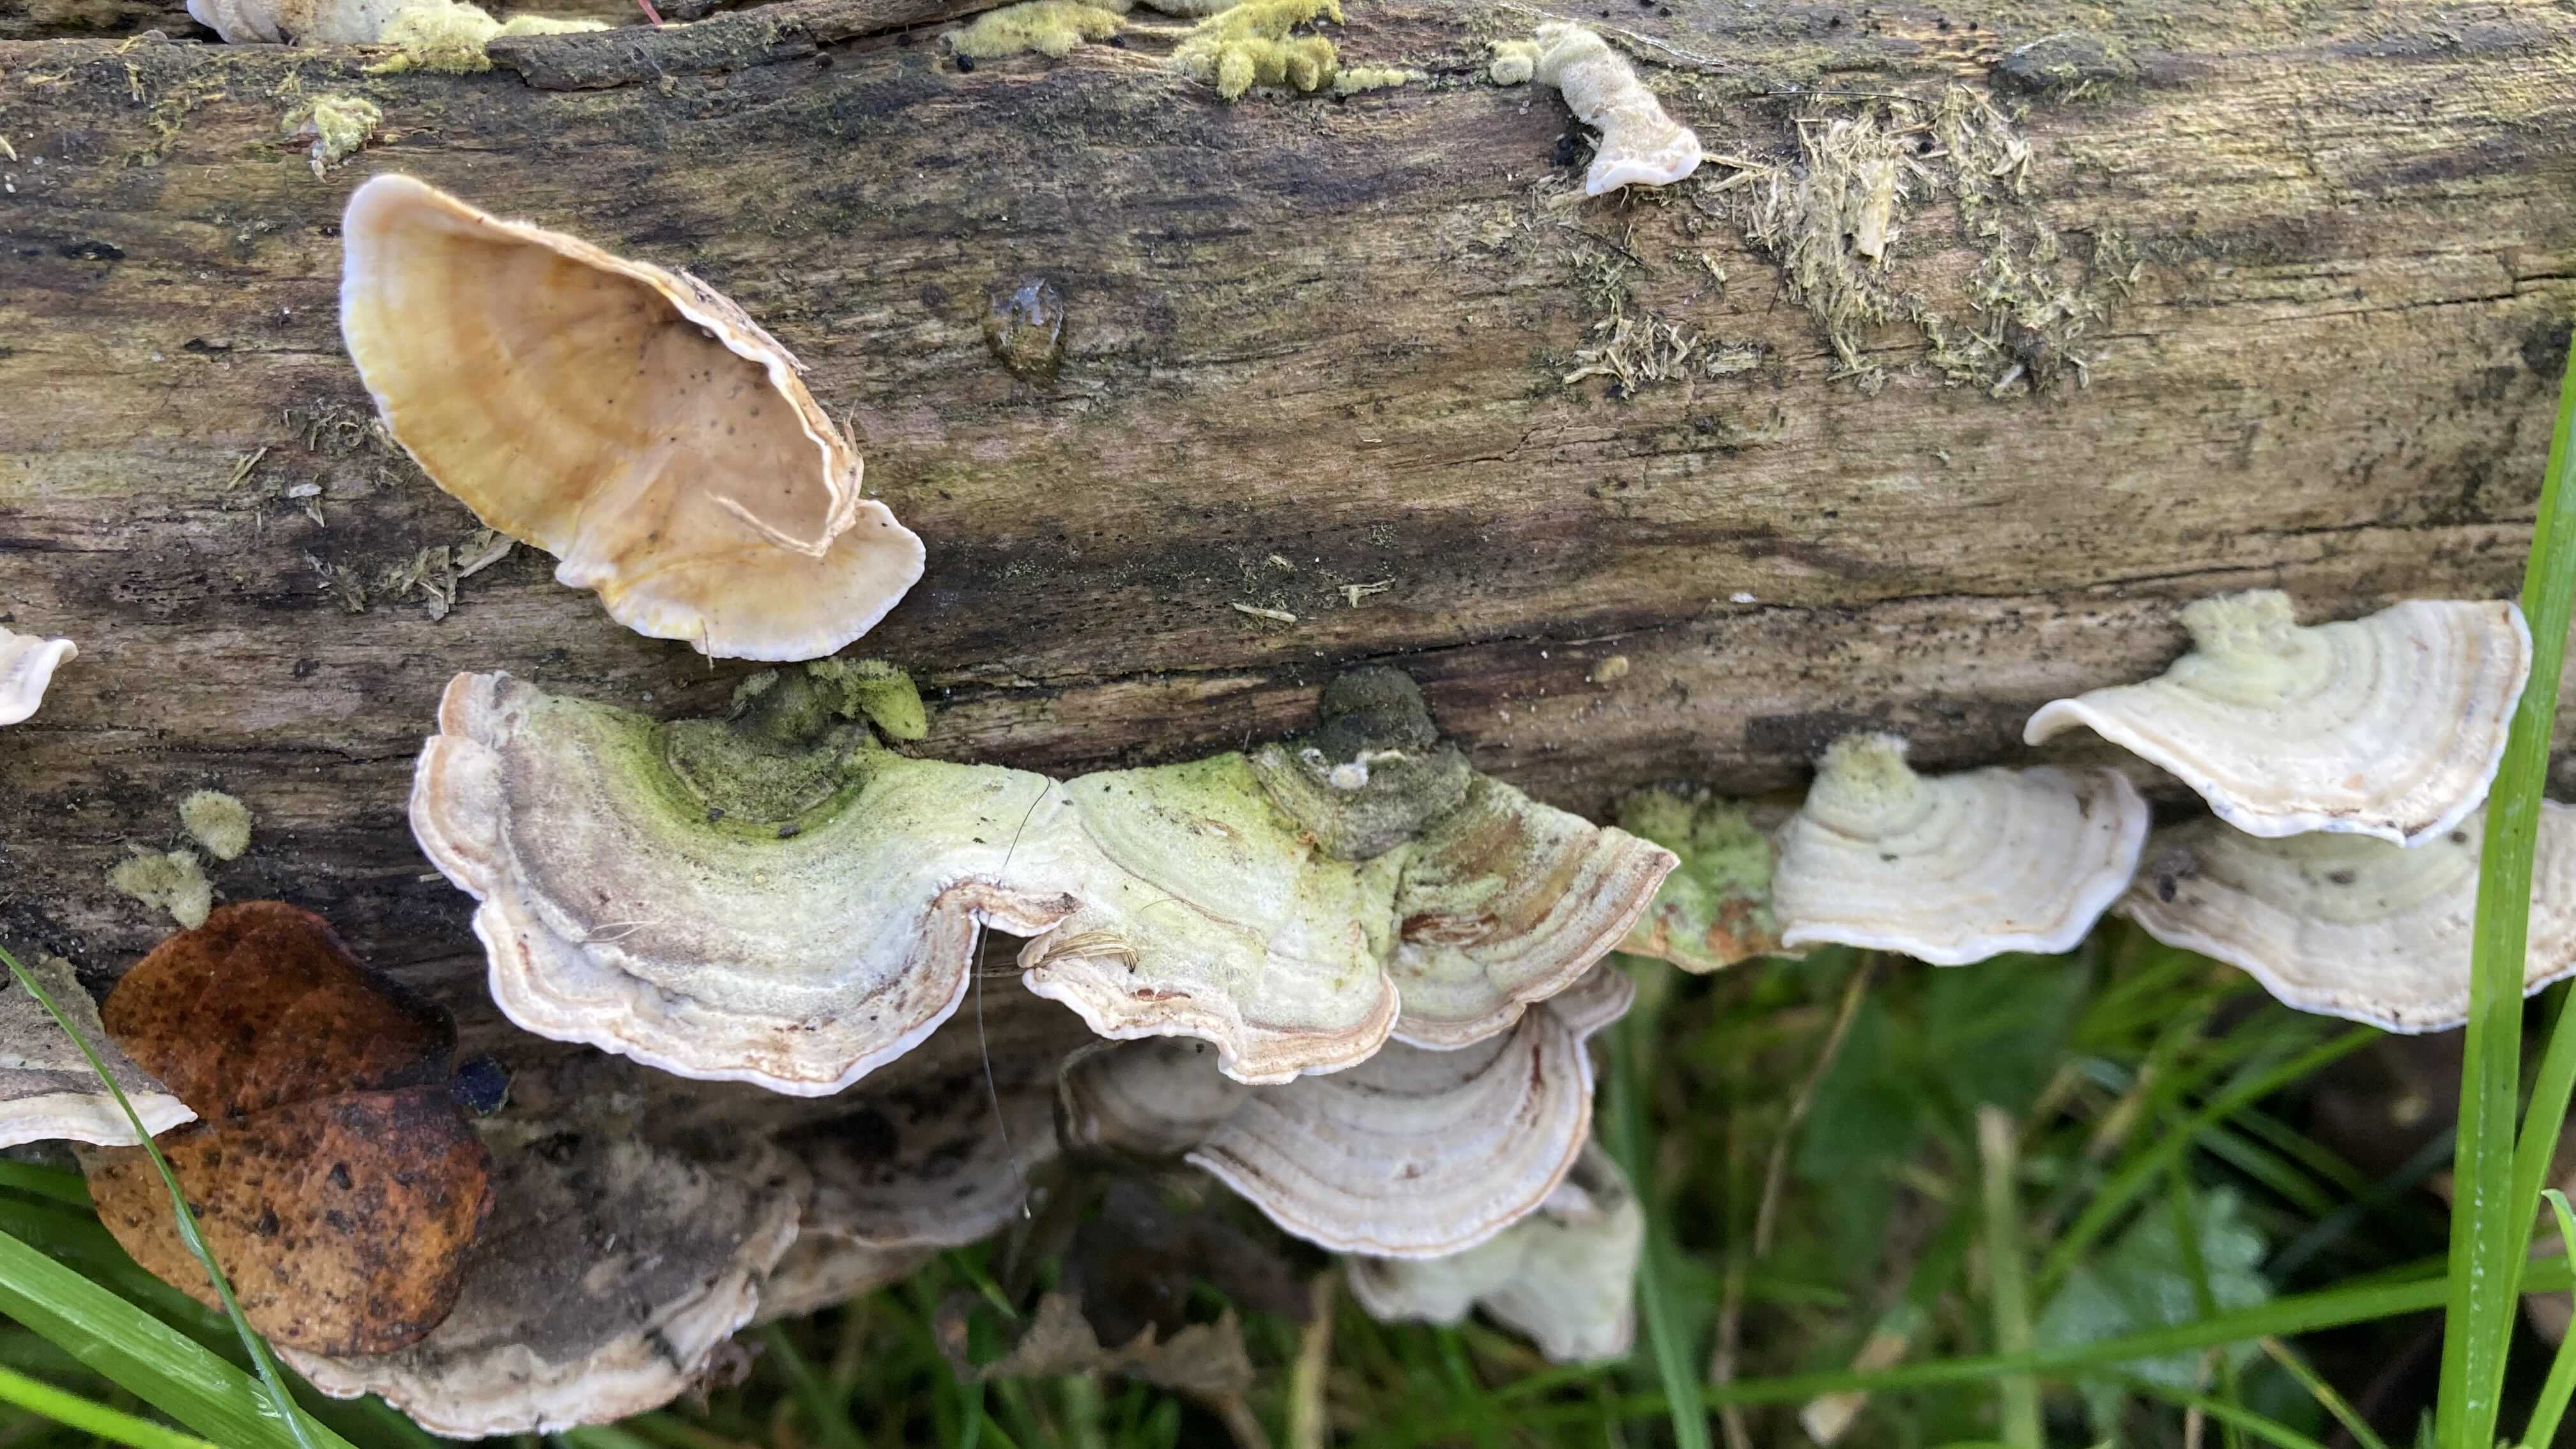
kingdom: Fungi
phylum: Basidiomycota
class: Agaricomycetes
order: Russulales
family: Stereaceae
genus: Stereum
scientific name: Stereum subtomentosum
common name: smuk lædersvamp
